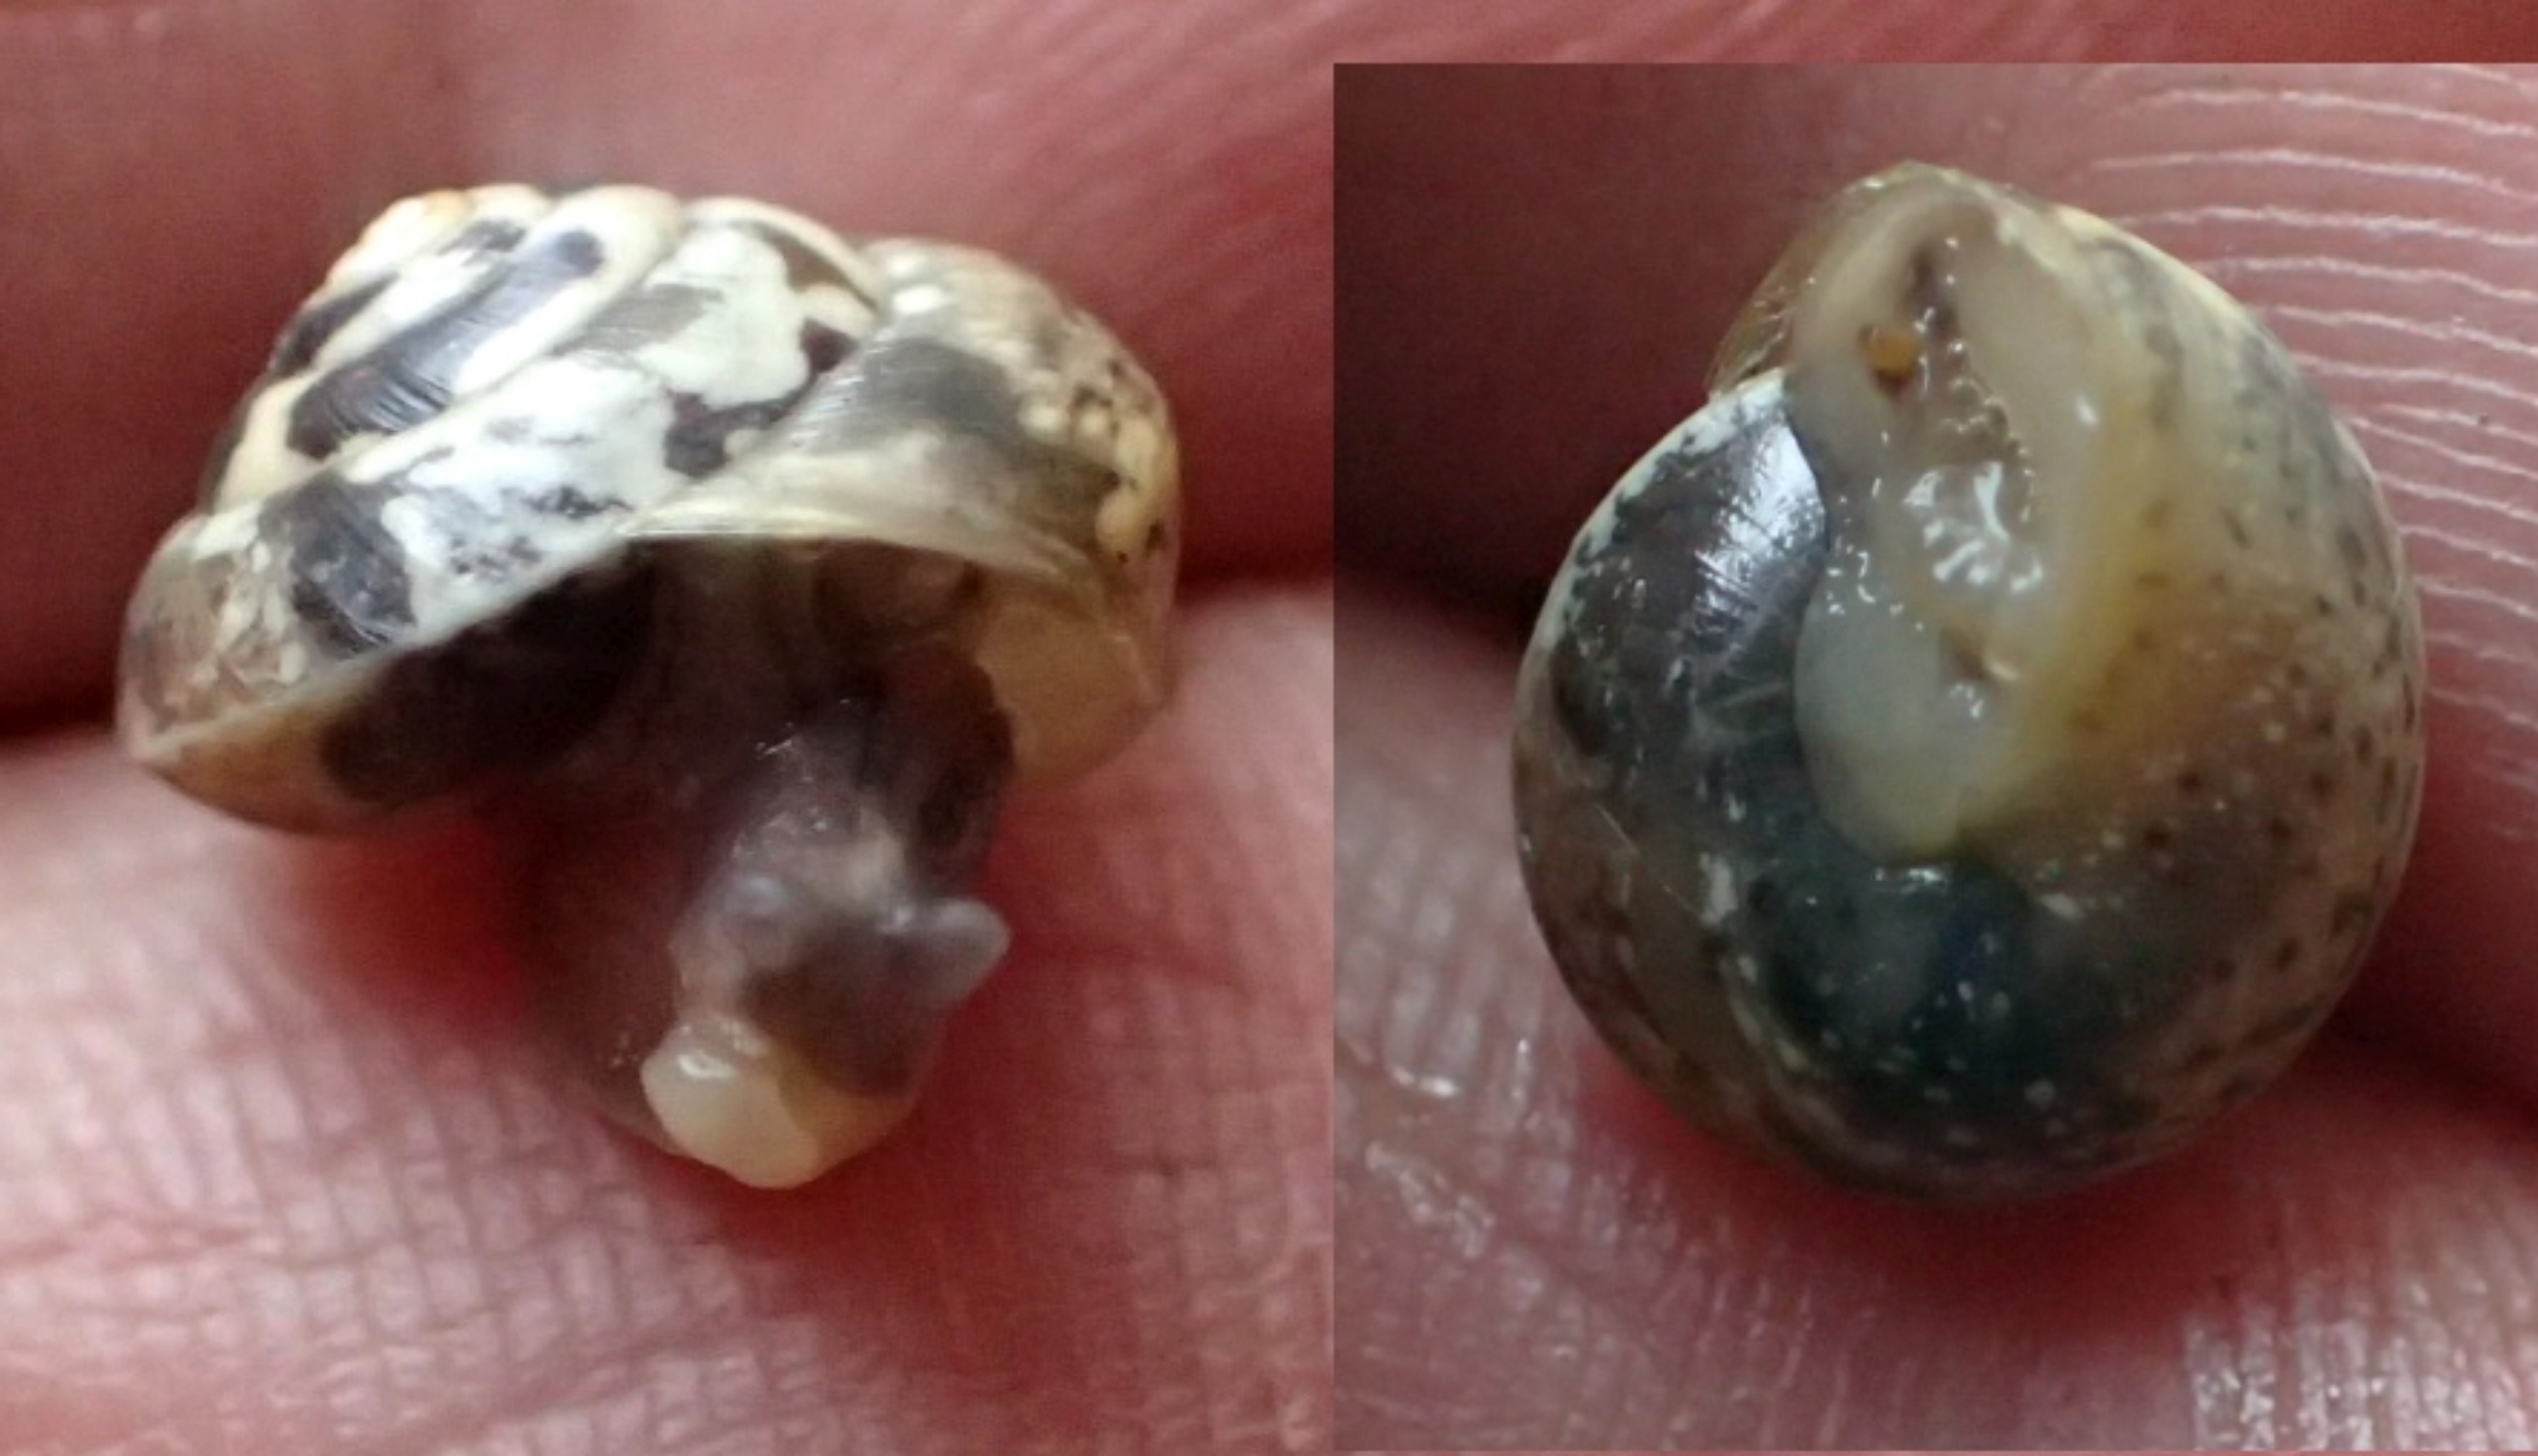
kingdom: Animalia
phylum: Mollusca
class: Gastropoda
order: Stylommatophora
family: Hygromiidae
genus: Hygromia
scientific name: Hygromia cinctella
